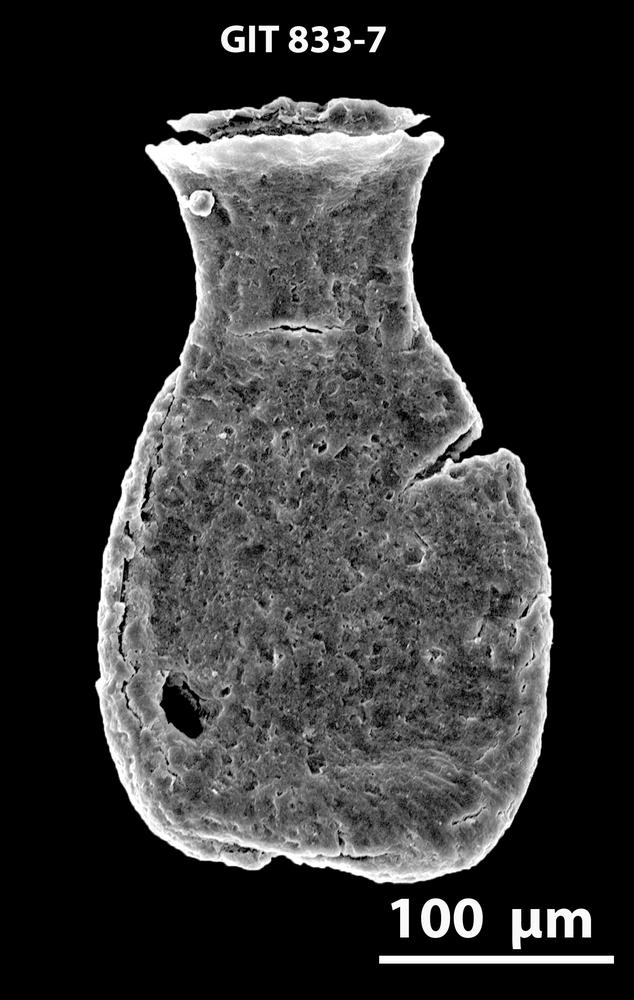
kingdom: Animalia
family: Lagenochitinidae
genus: Lagenochitina
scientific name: Lagenochitina
